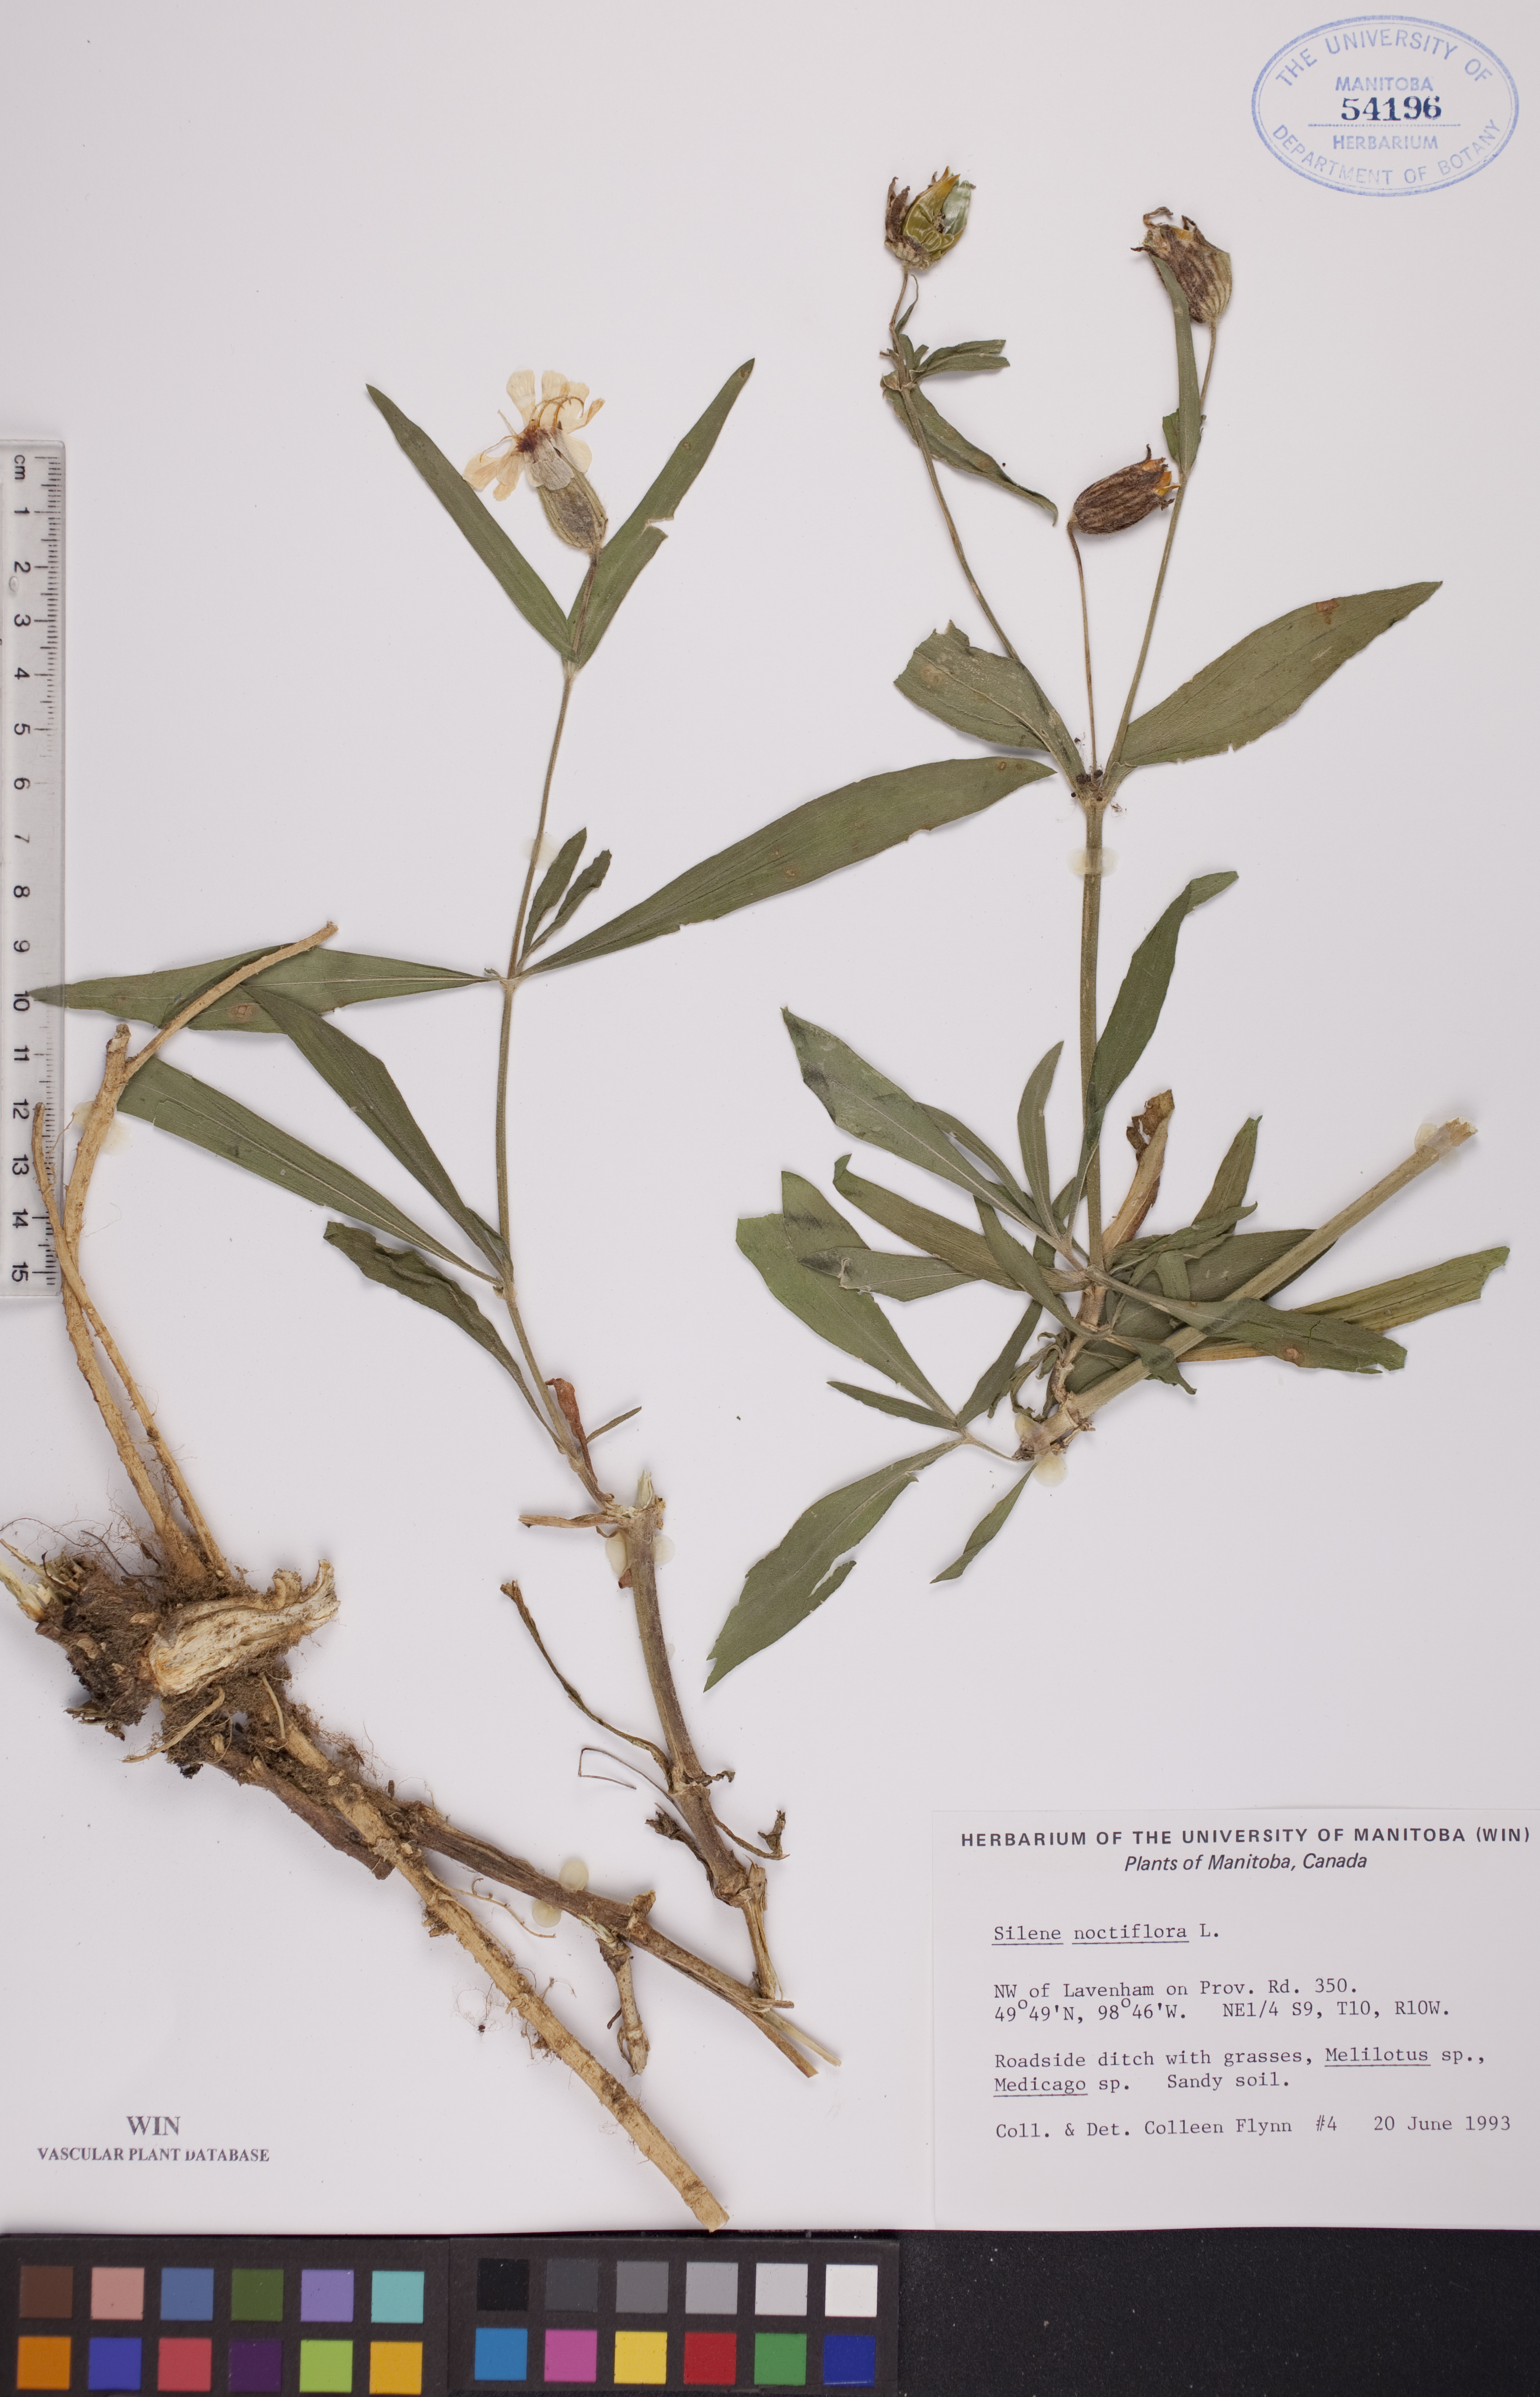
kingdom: Plantae
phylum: Tracheophyta
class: Magnoliopsida
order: Caryophyllales
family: Caryophyllaceae
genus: Silene
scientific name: Silene noctiflora
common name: Night-flowering catchfly
